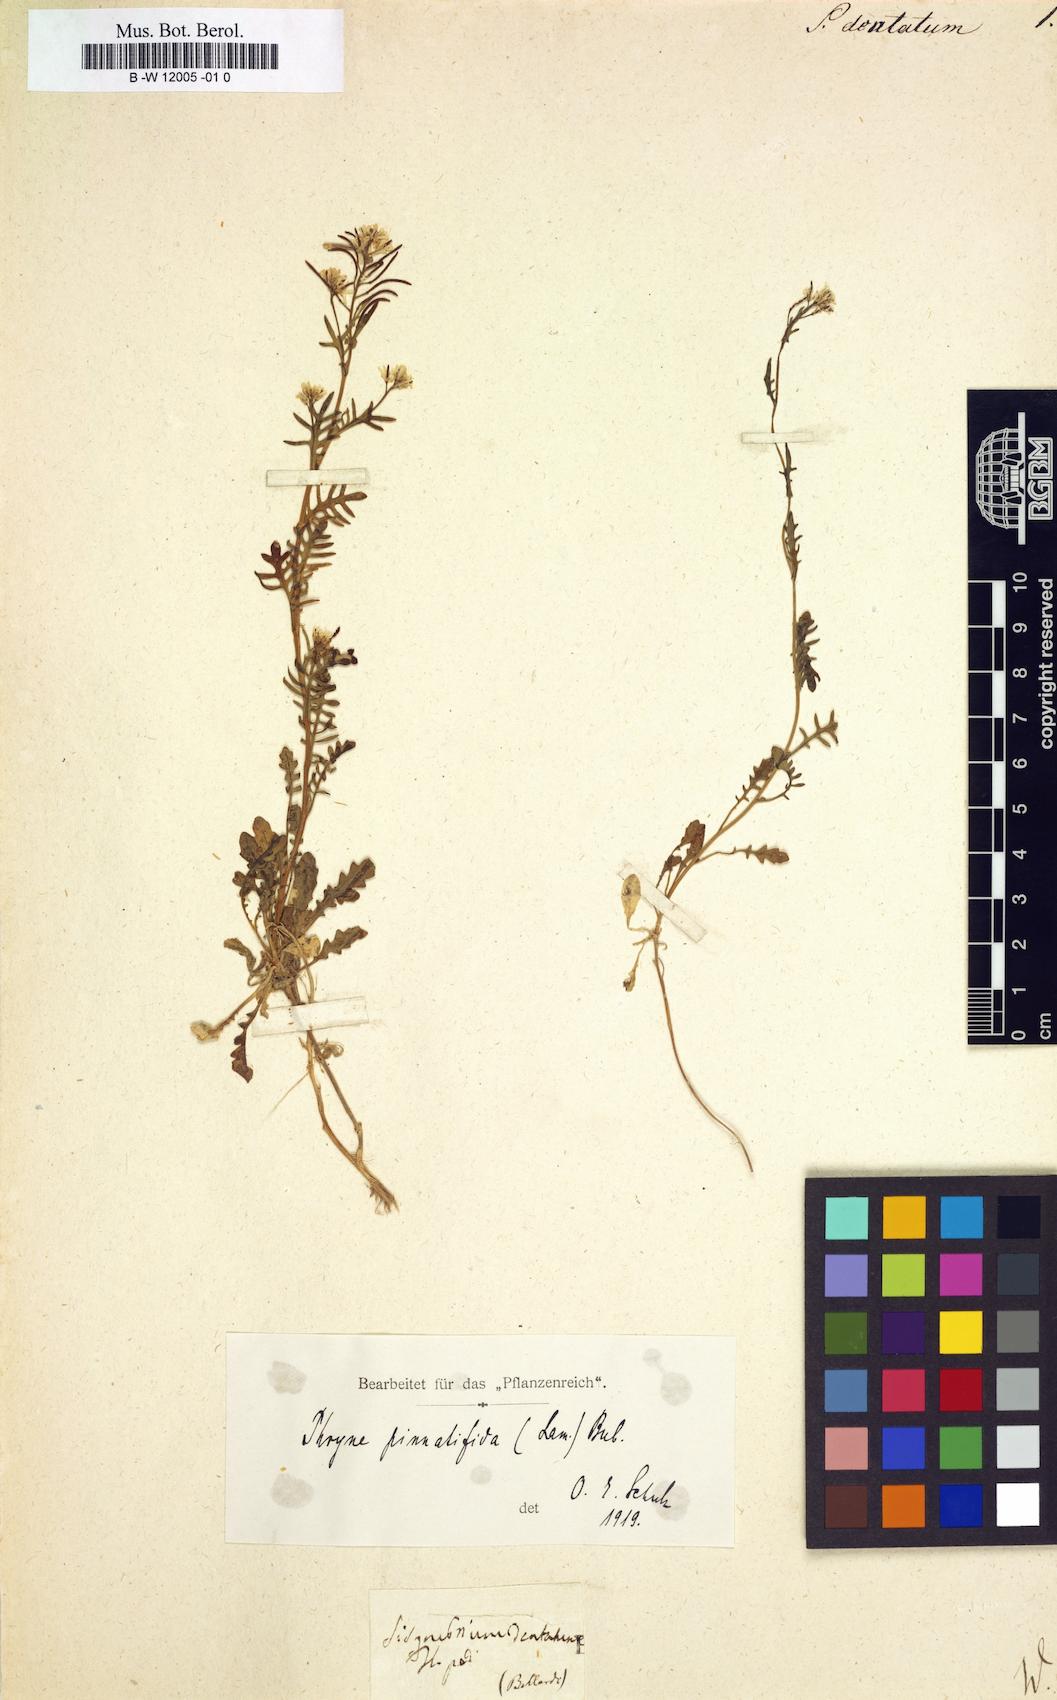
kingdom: Plantae
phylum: Tracheophyta
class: Magnoliopsida
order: Brassicales
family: Brassicaceae
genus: Sisymbrium
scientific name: Sisymbrium dentatum
